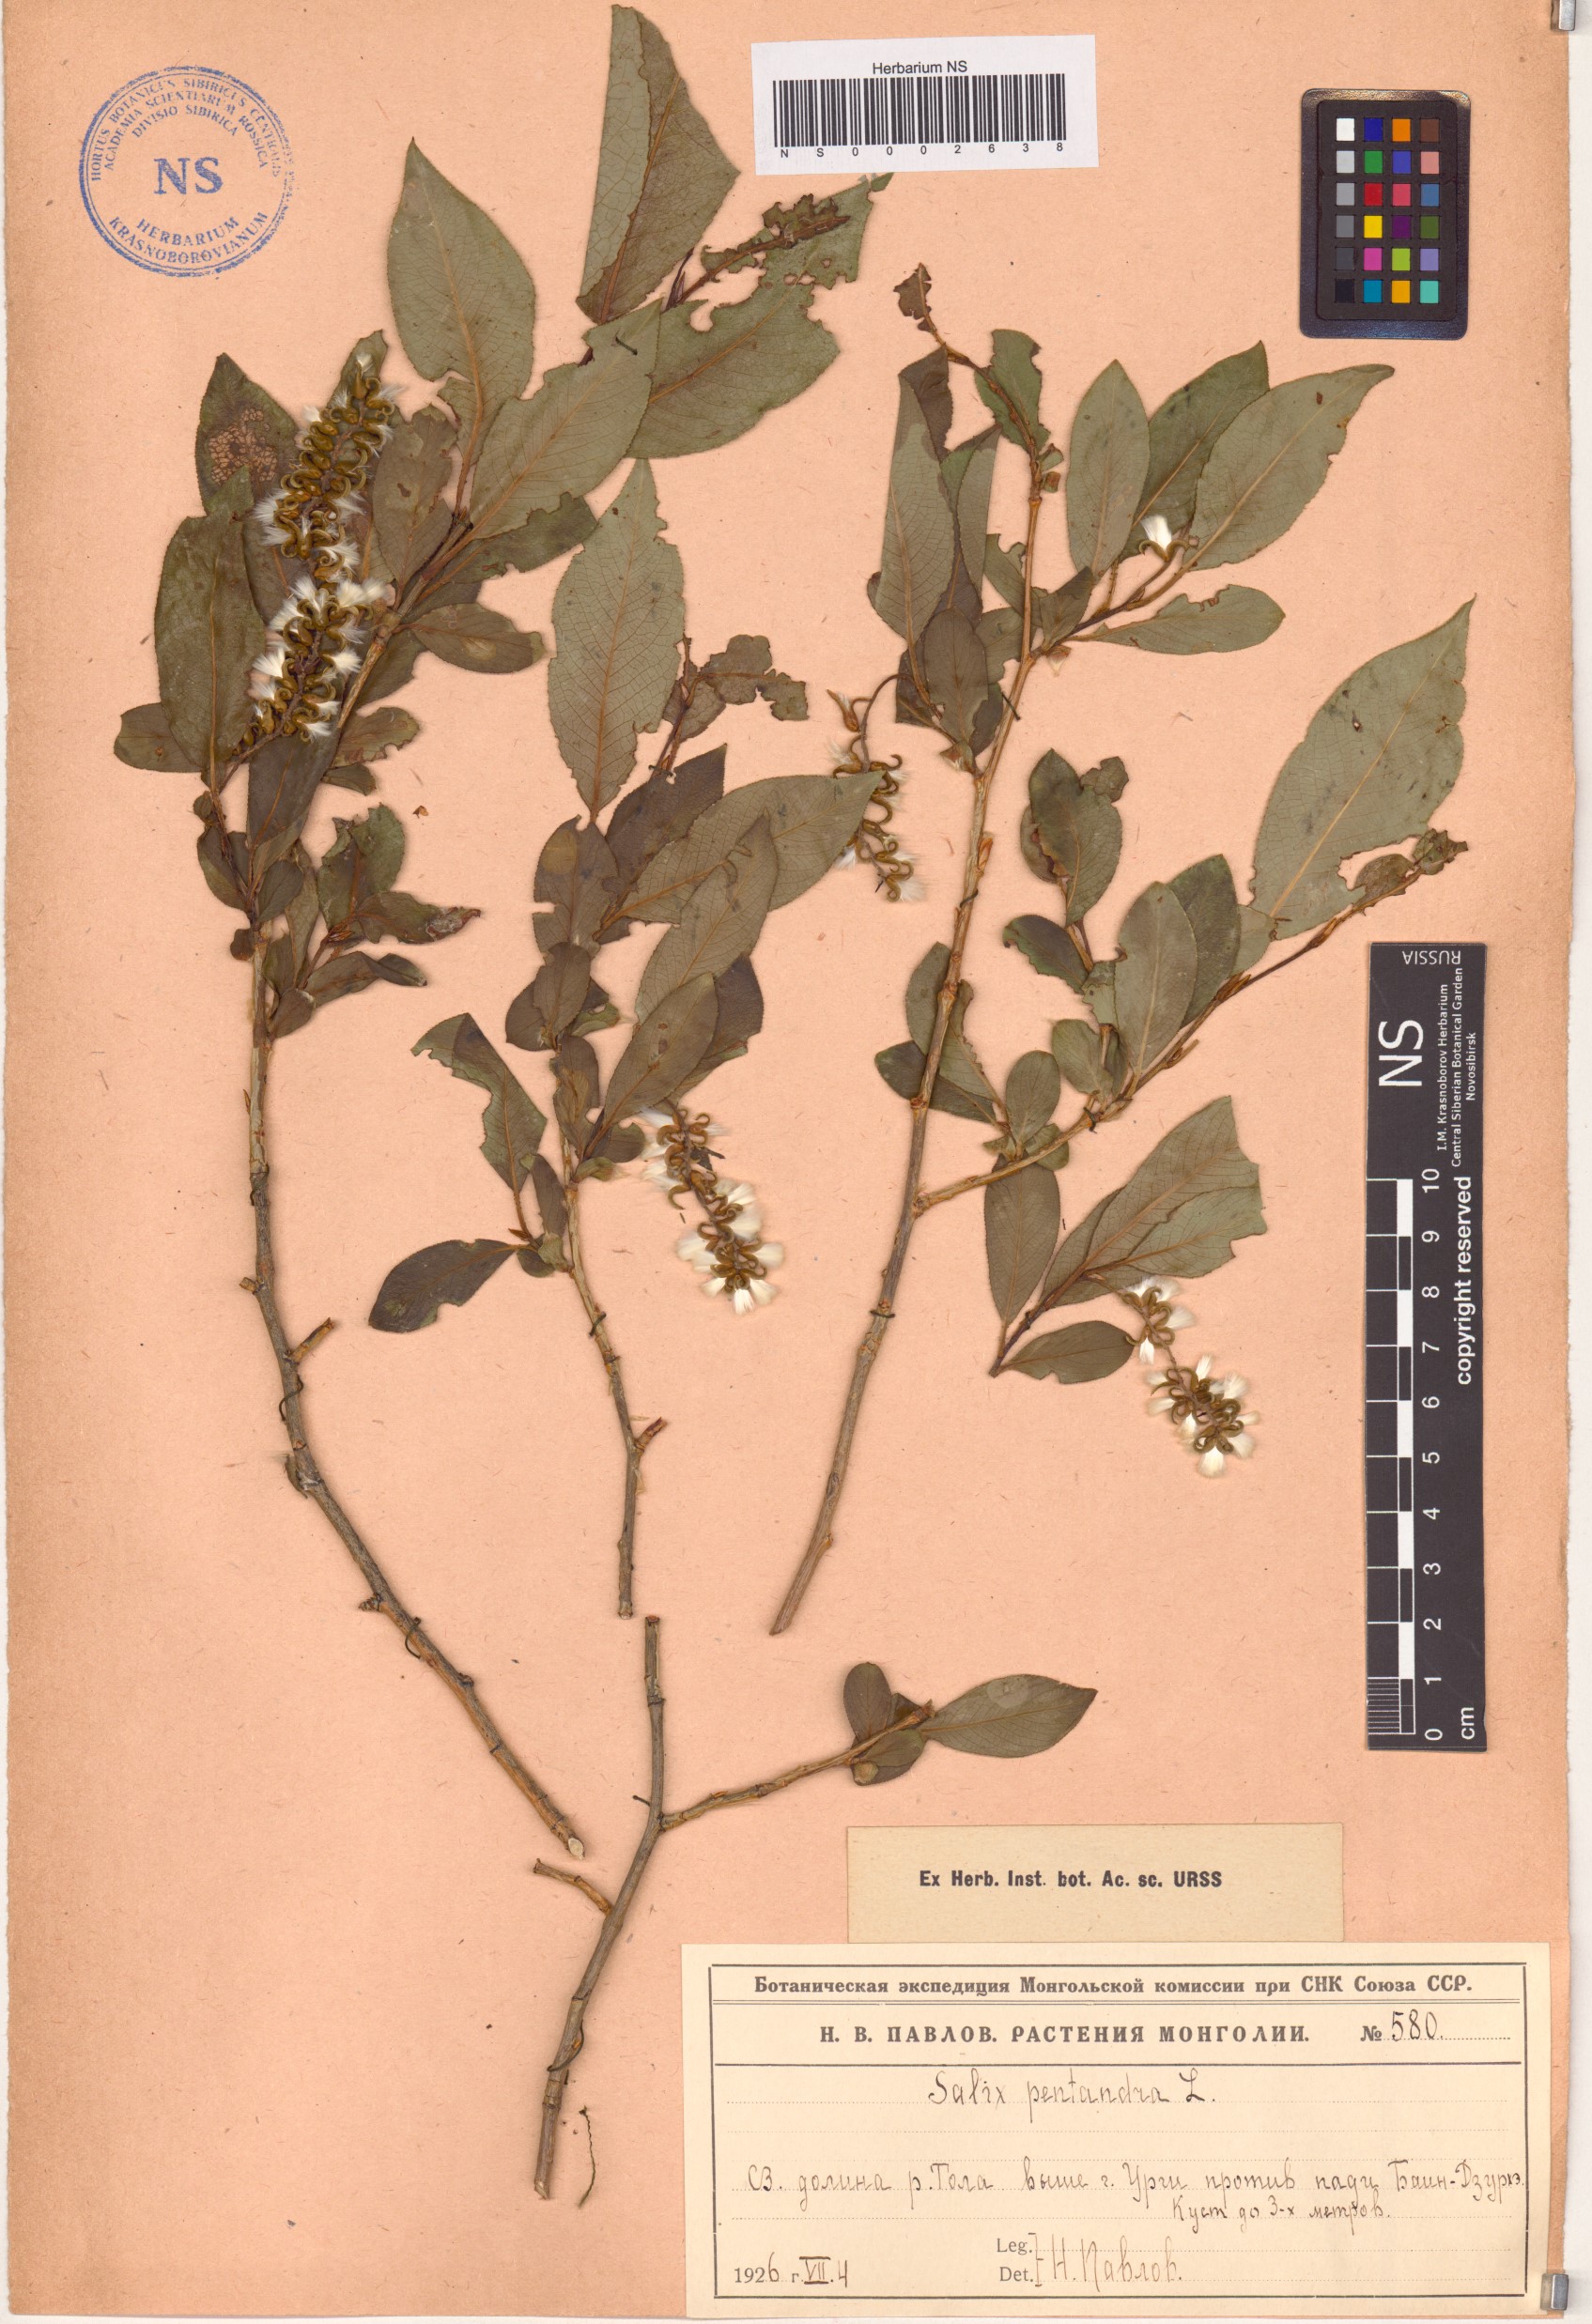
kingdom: Plantae
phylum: Tracheophyta
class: Magnoliopsida
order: Malpighiales
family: Salicaceae
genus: Salix
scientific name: Salix pseudopentandra
